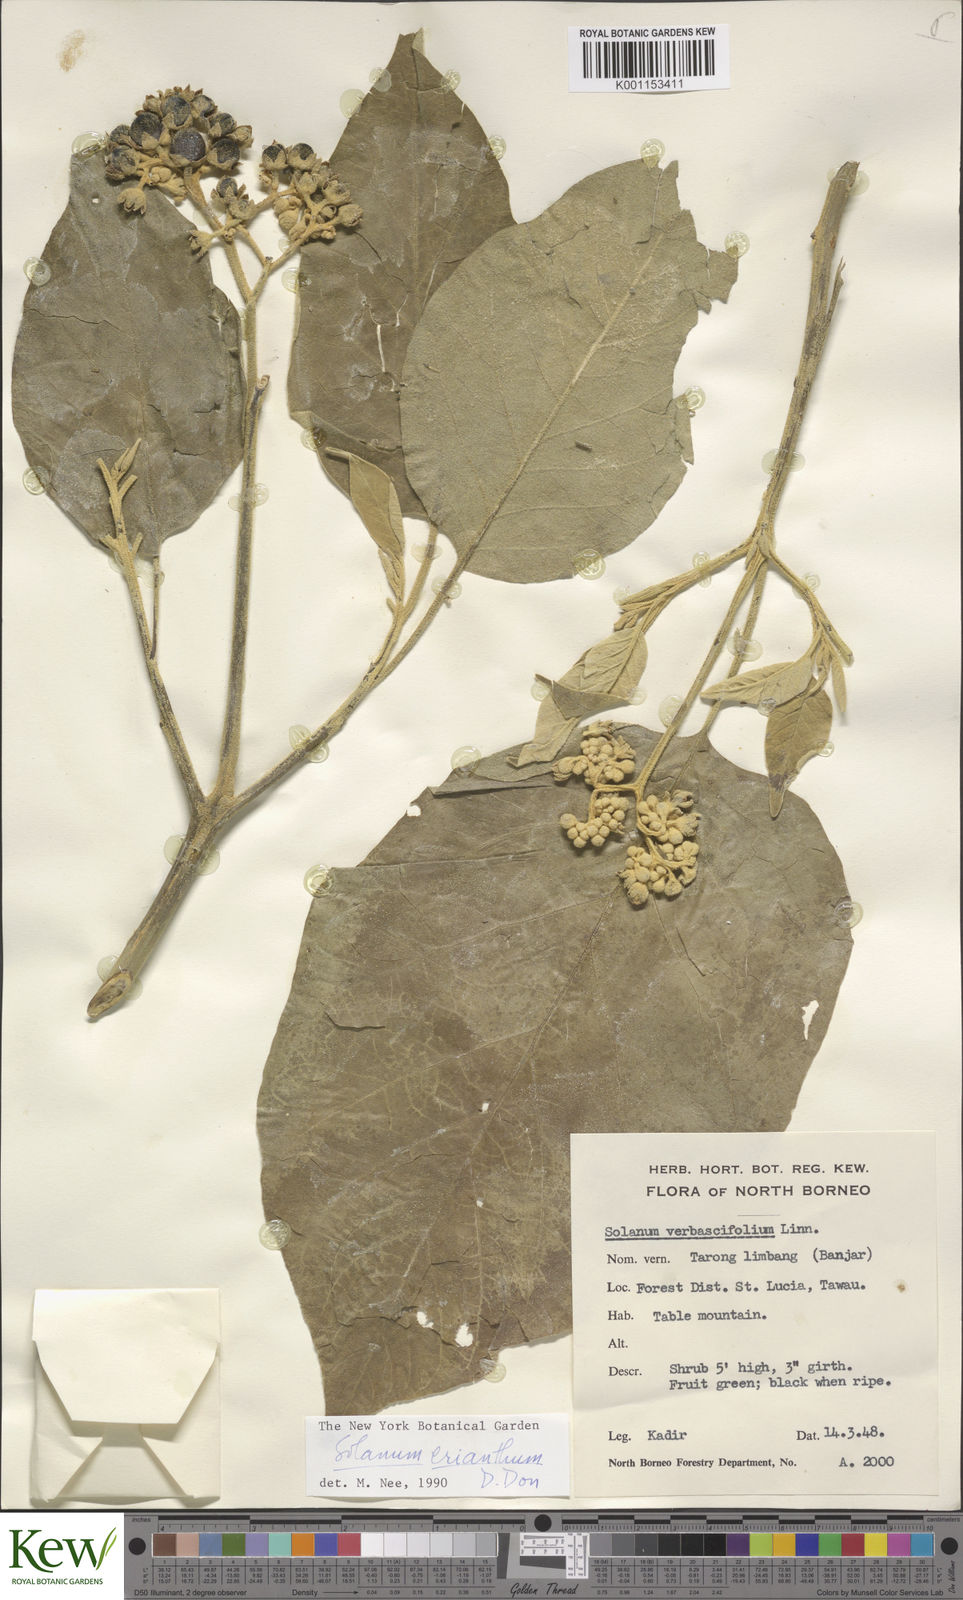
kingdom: Plantae
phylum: Tracheophyta
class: Magnoliopsida
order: Solanales
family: Solanaceae
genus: Solanum
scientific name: Solanum erianthum
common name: Tobacco-tree
